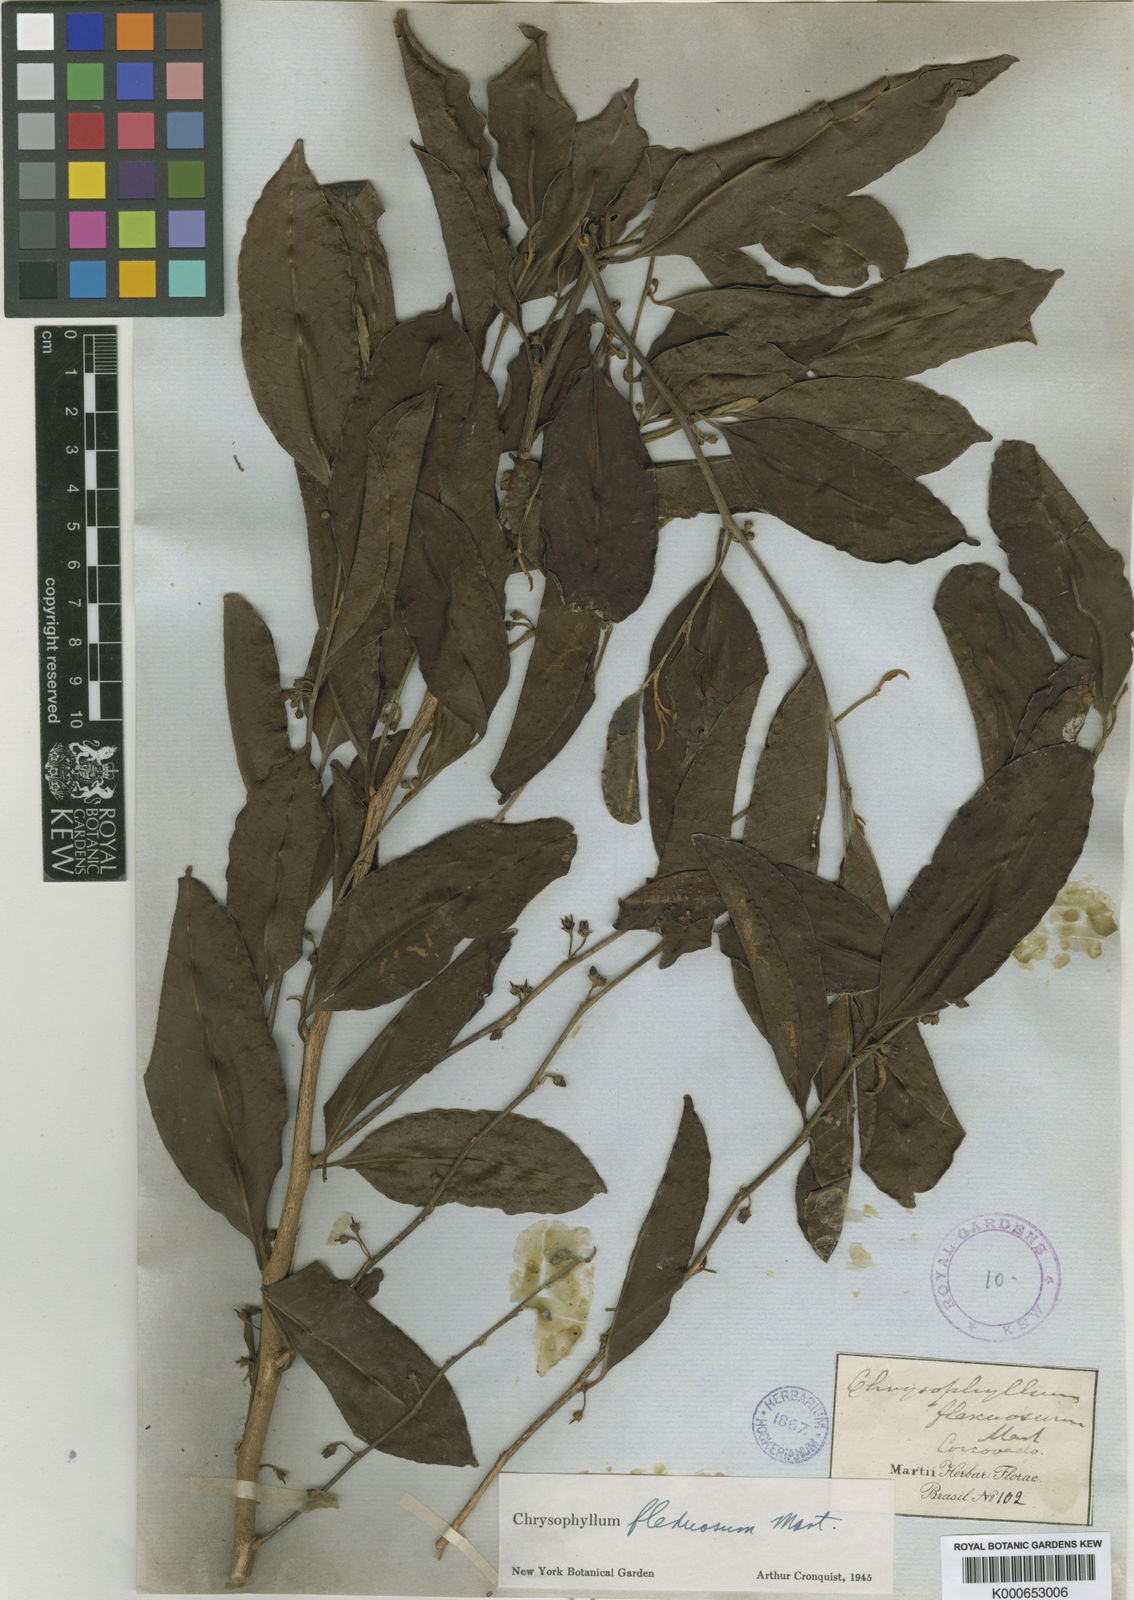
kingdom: Plantae
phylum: Tracheophyta
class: Magnoliopsida
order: Ericales
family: Sapotaceae
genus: Chrysophyllum
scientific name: Chrysophyllum flexuosum
